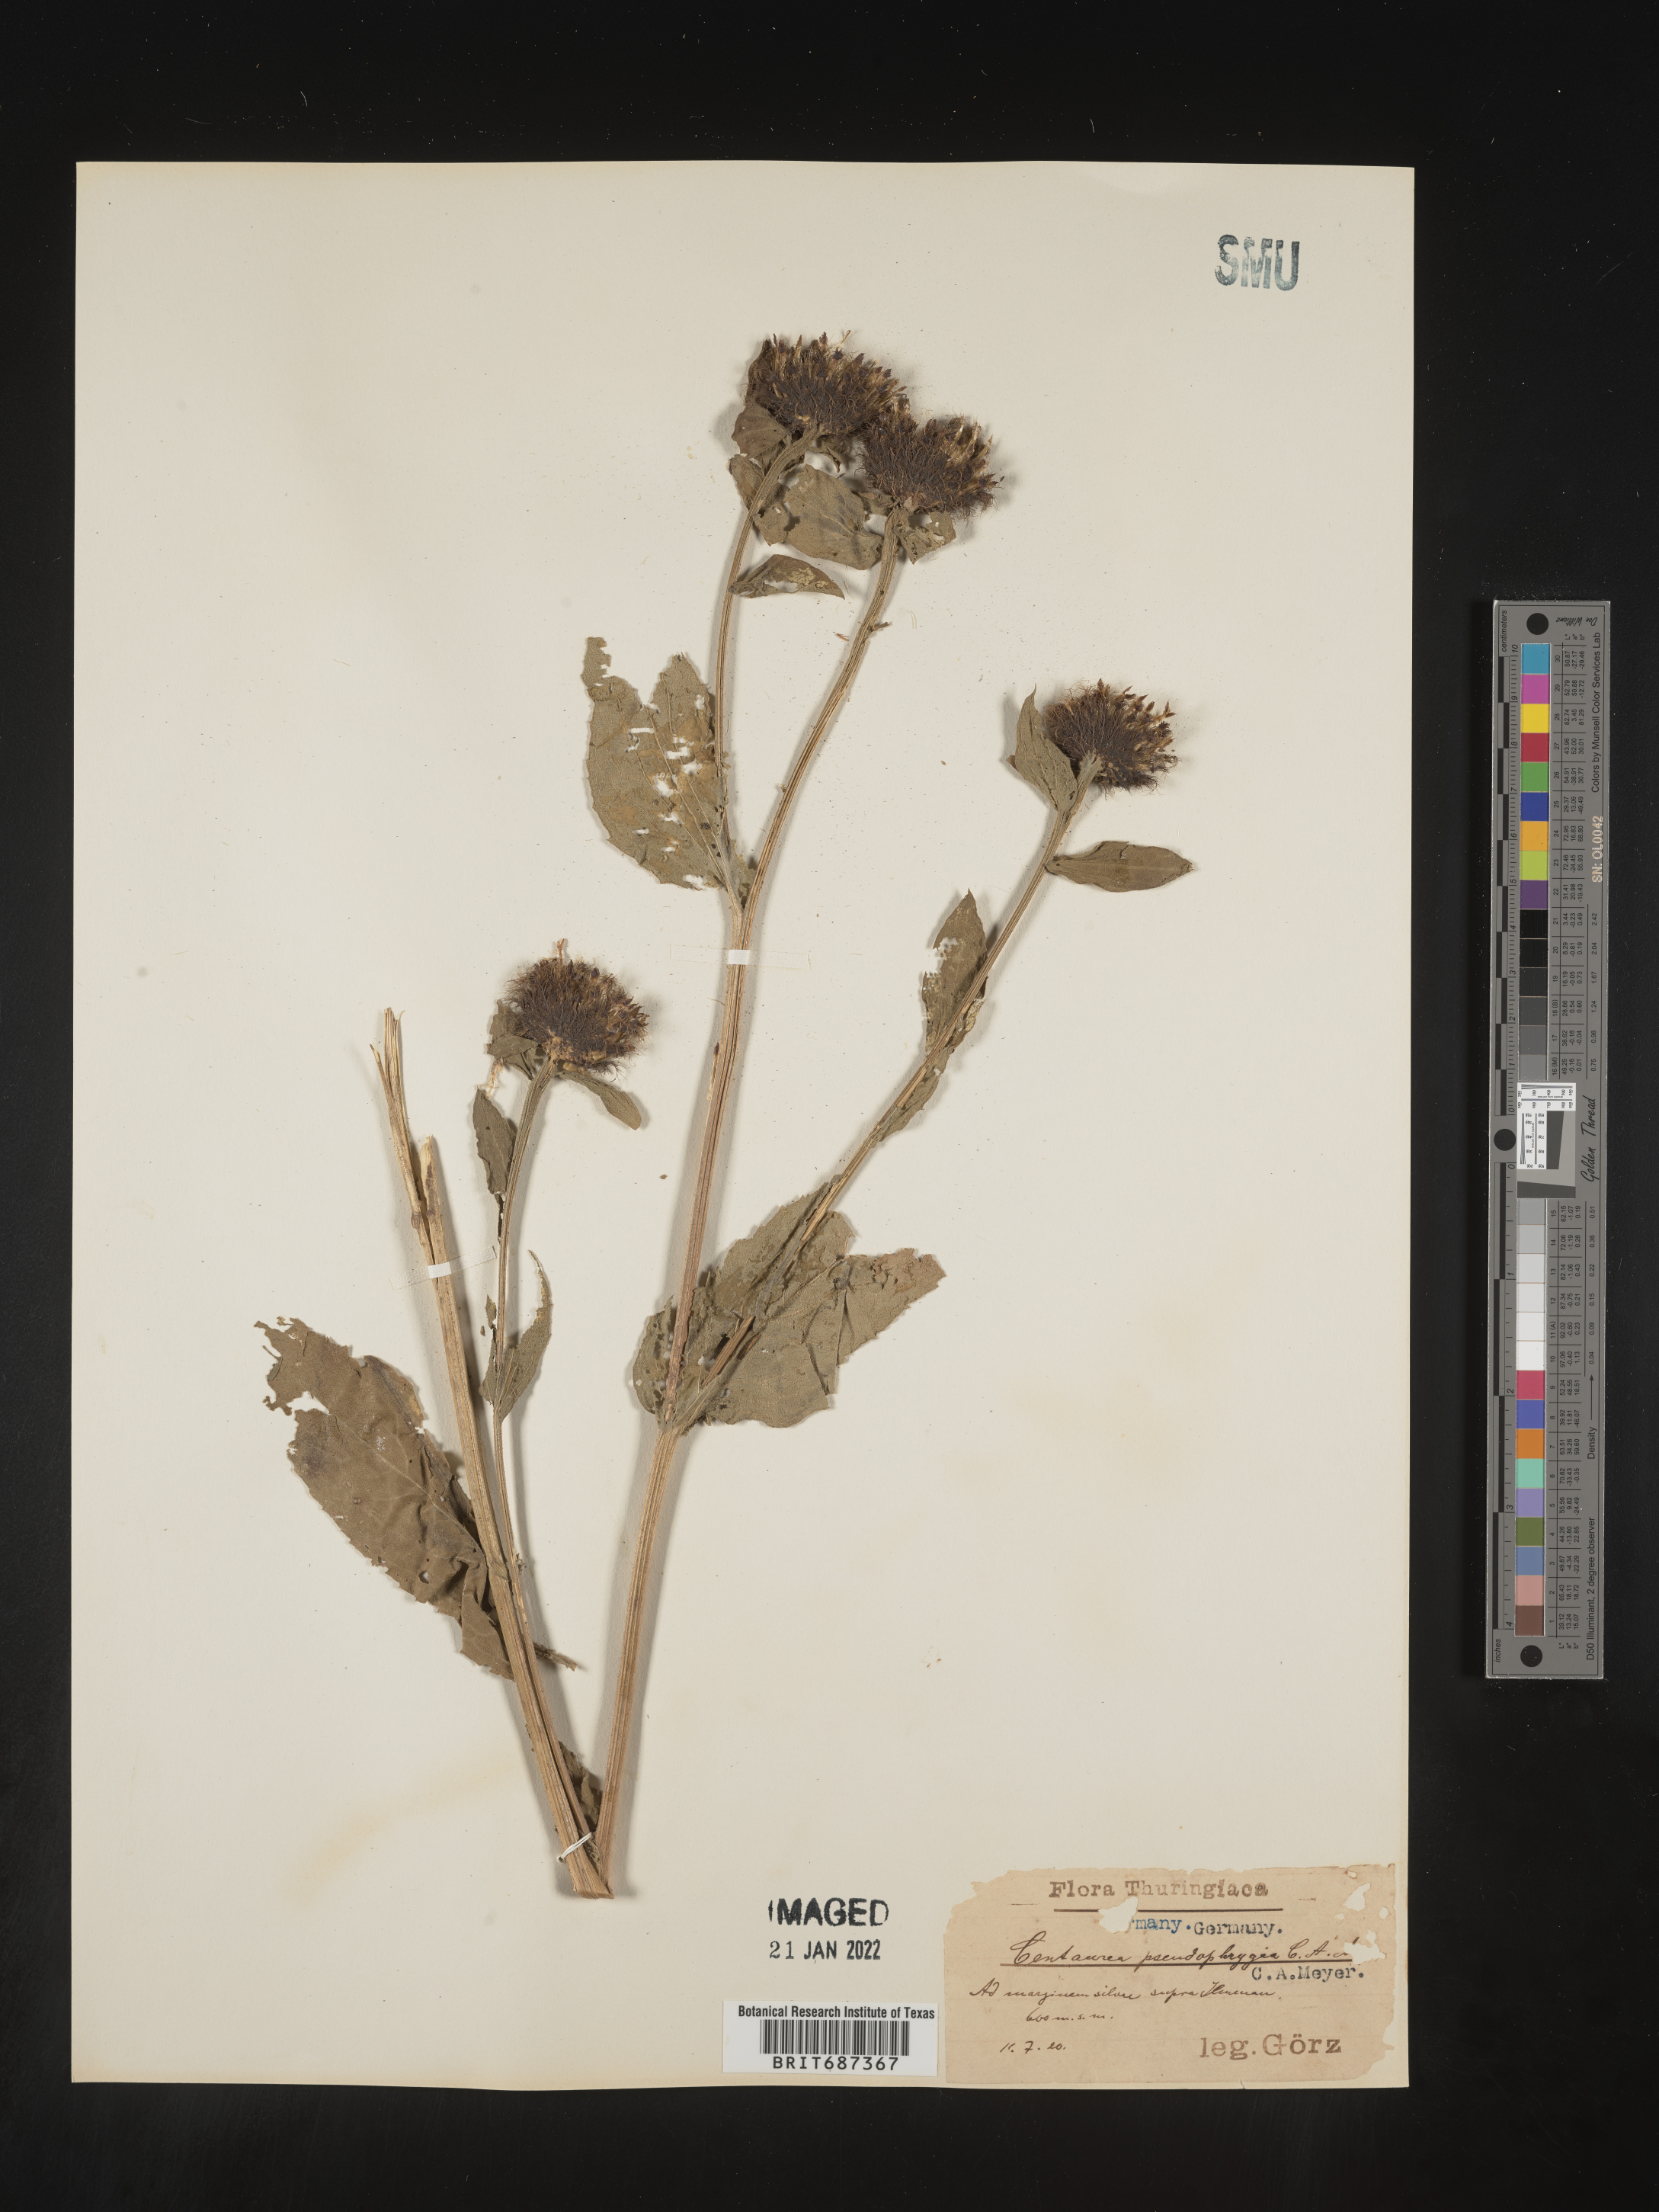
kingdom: Plantae
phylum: Tracheophyta
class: Magnoliopsida
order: Asterales
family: Asteraceae
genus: Centaurea
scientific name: Centaurea
